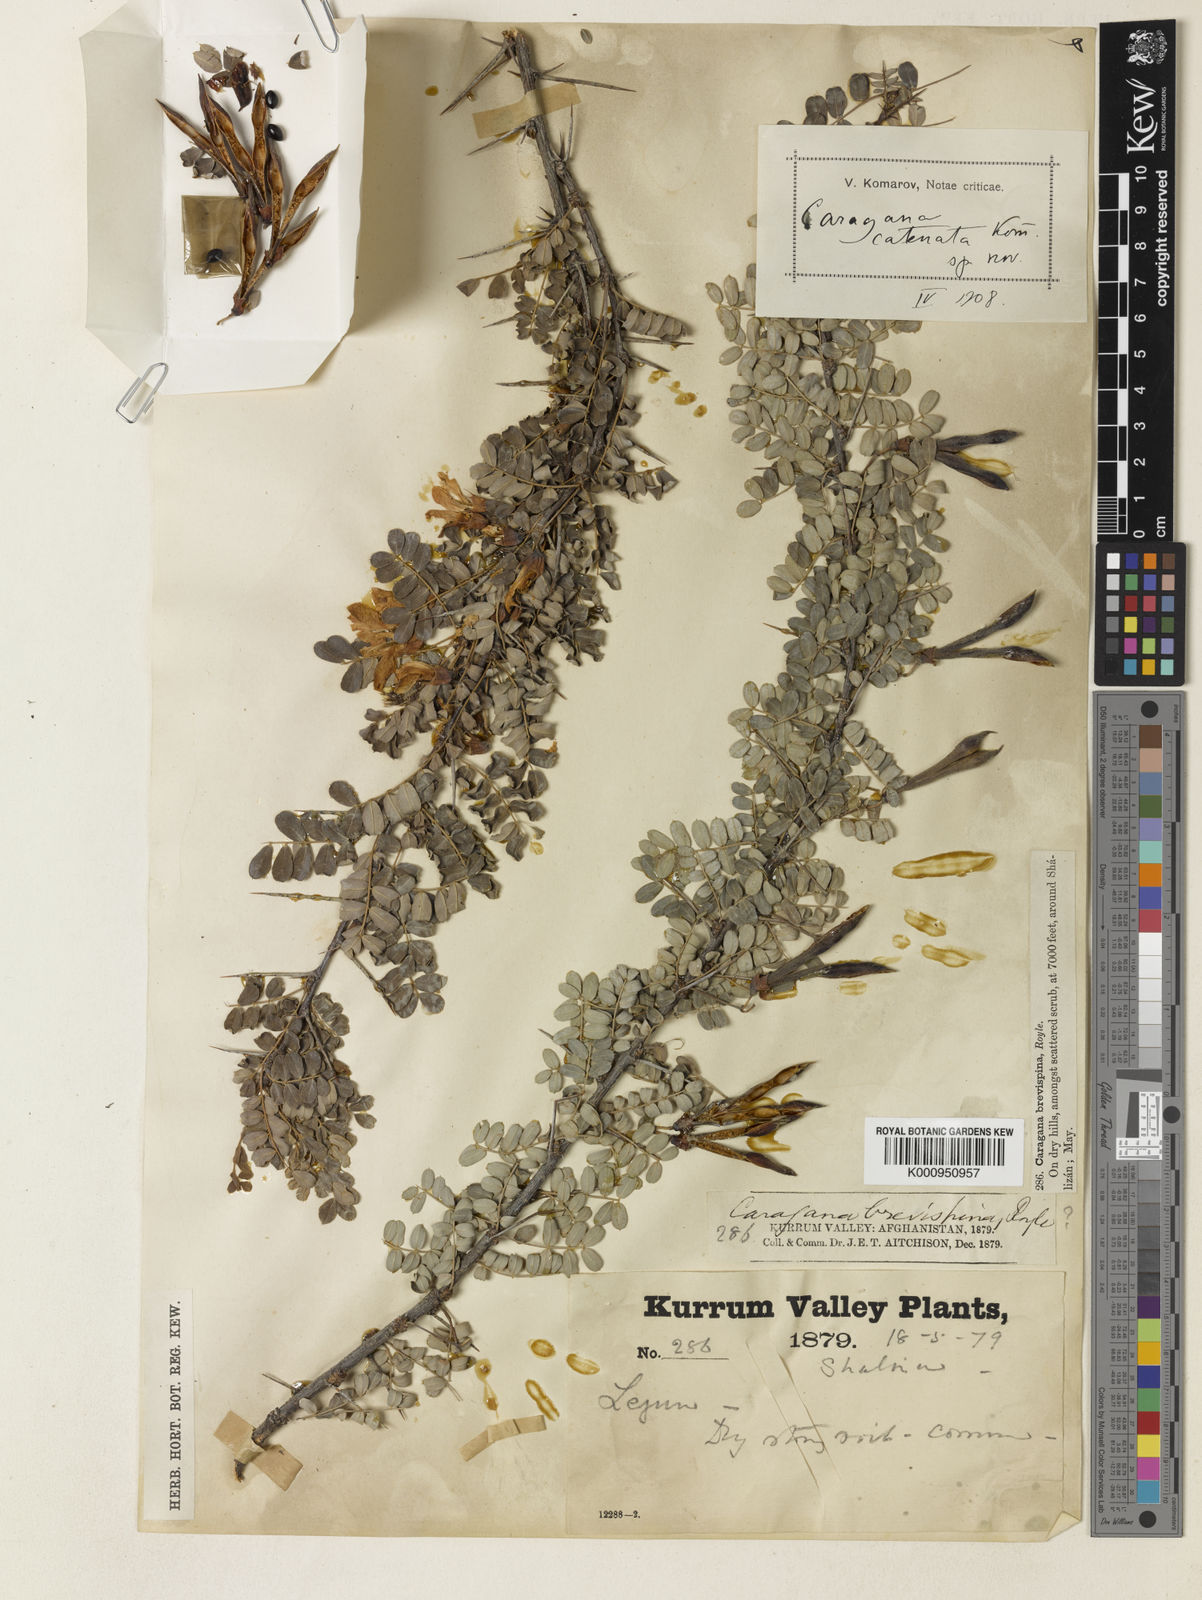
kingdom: Plantae
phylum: Tracheophyta
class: Magnoliopsida
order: Fabales
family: Fabaceae
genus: Caragana
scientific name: Caragana brevispina
